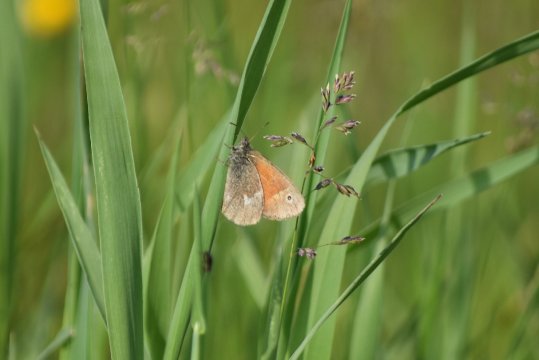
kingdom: Animalia
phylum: Arthropoda
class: Insecta
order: Lepidoptera
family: Nymphalidae
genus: Coenonympha
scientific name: Coenonympha tullia
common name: Large Heath
